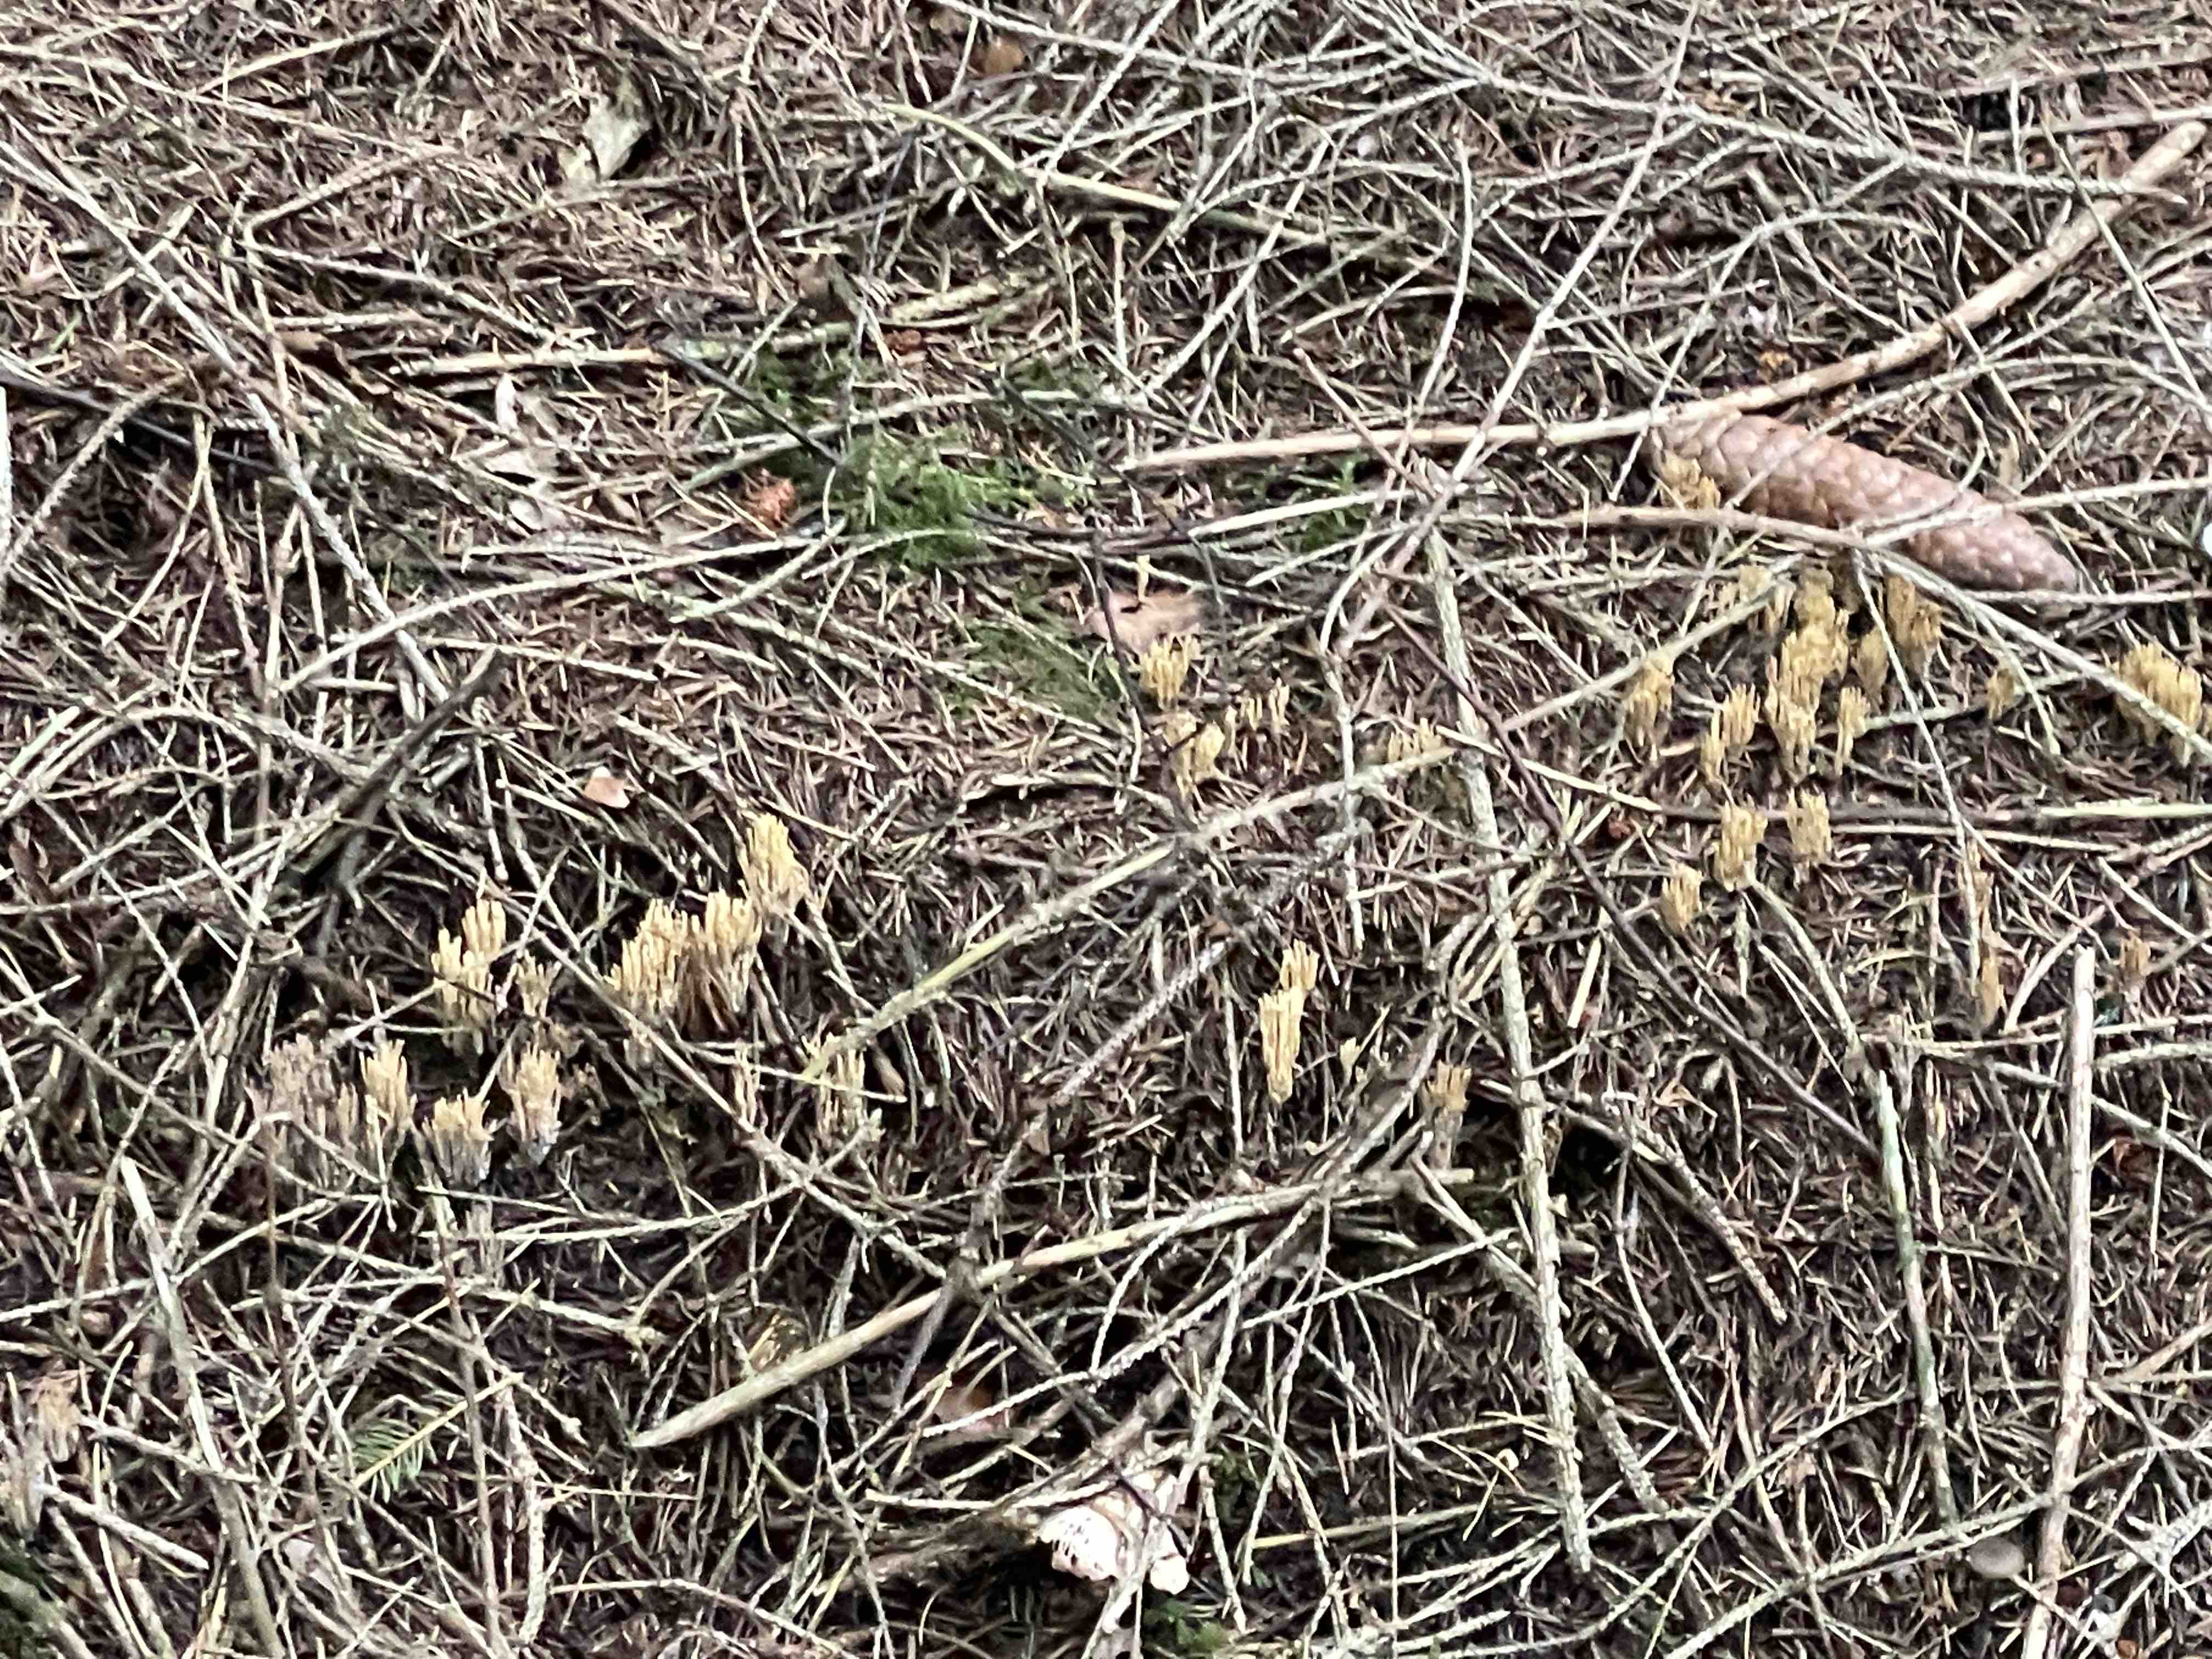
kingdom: Fungi
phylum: Basidiomycota
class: Agaricomycetes
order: Gomphales
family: Gomphaceae
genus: Phaeoclavulina
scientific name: Phaeoclavulina eumorpha
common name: gran-koralsvamp
